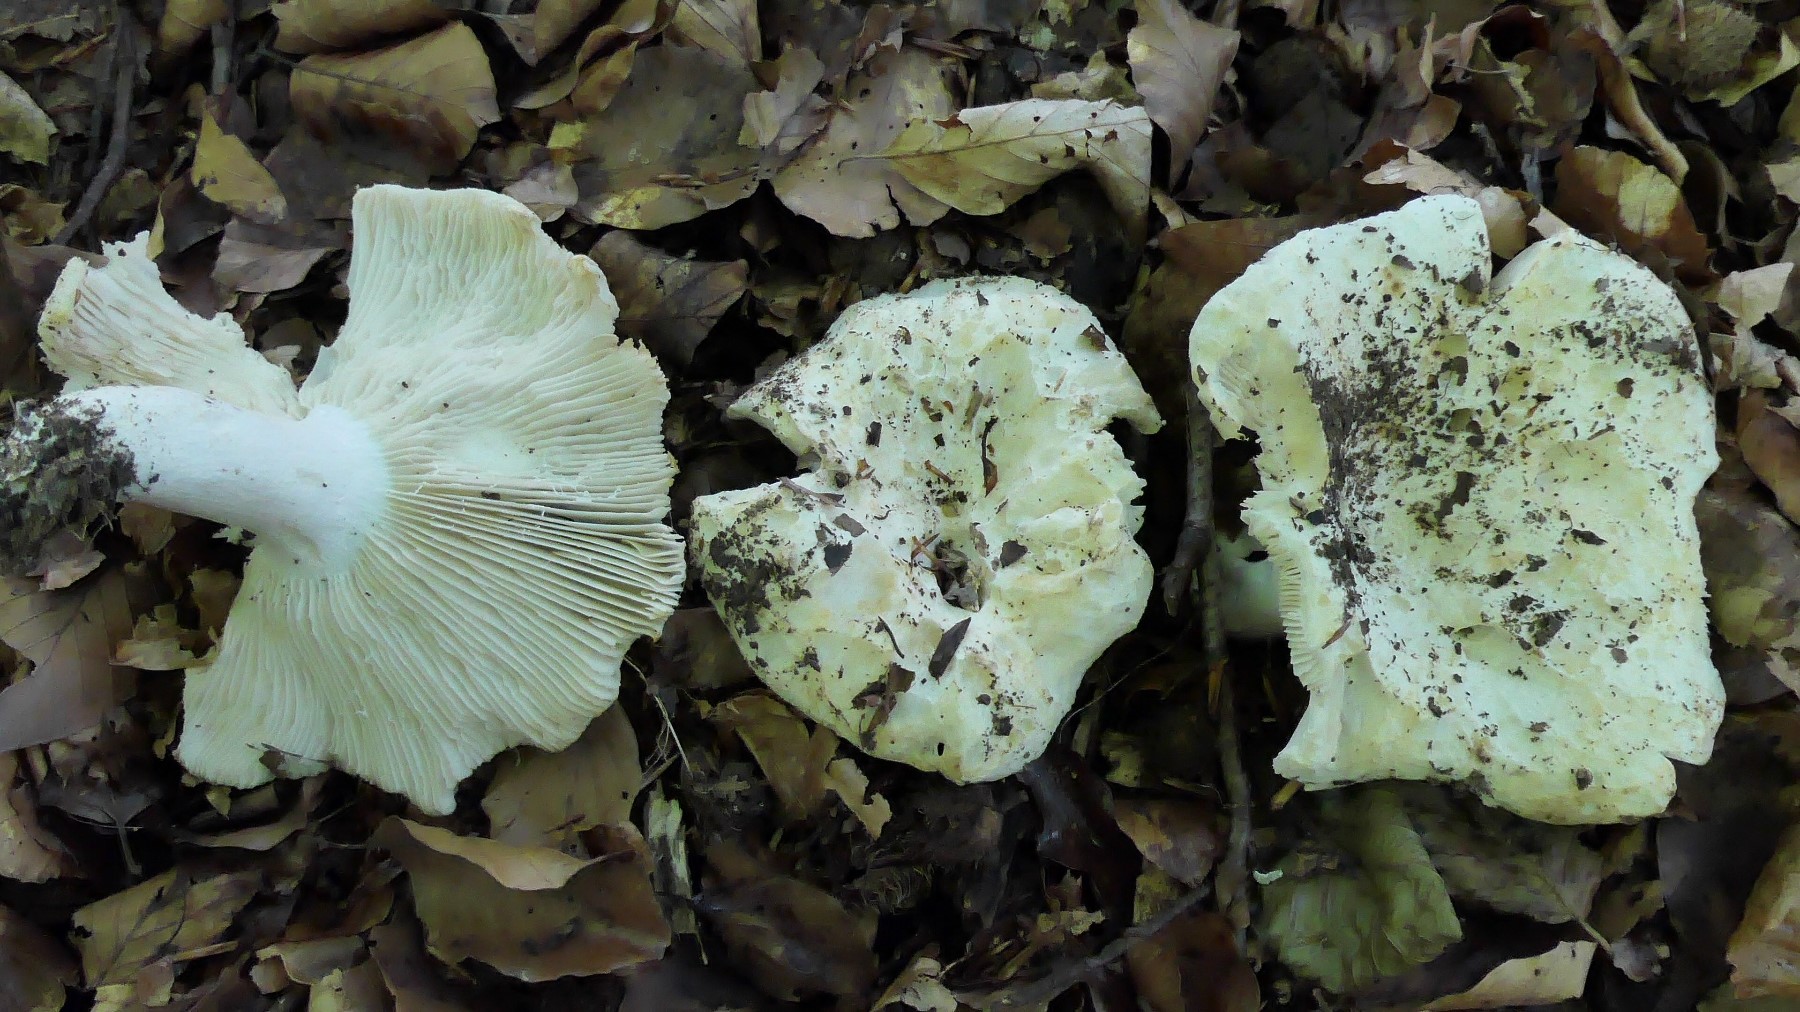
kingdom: Fungi
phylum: Basidiomycota
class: Agaricomycetes
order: Russulales
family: Russulaceae
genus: Russula
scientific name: Russula chloroides
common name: grønhalset tragt-skørhat
